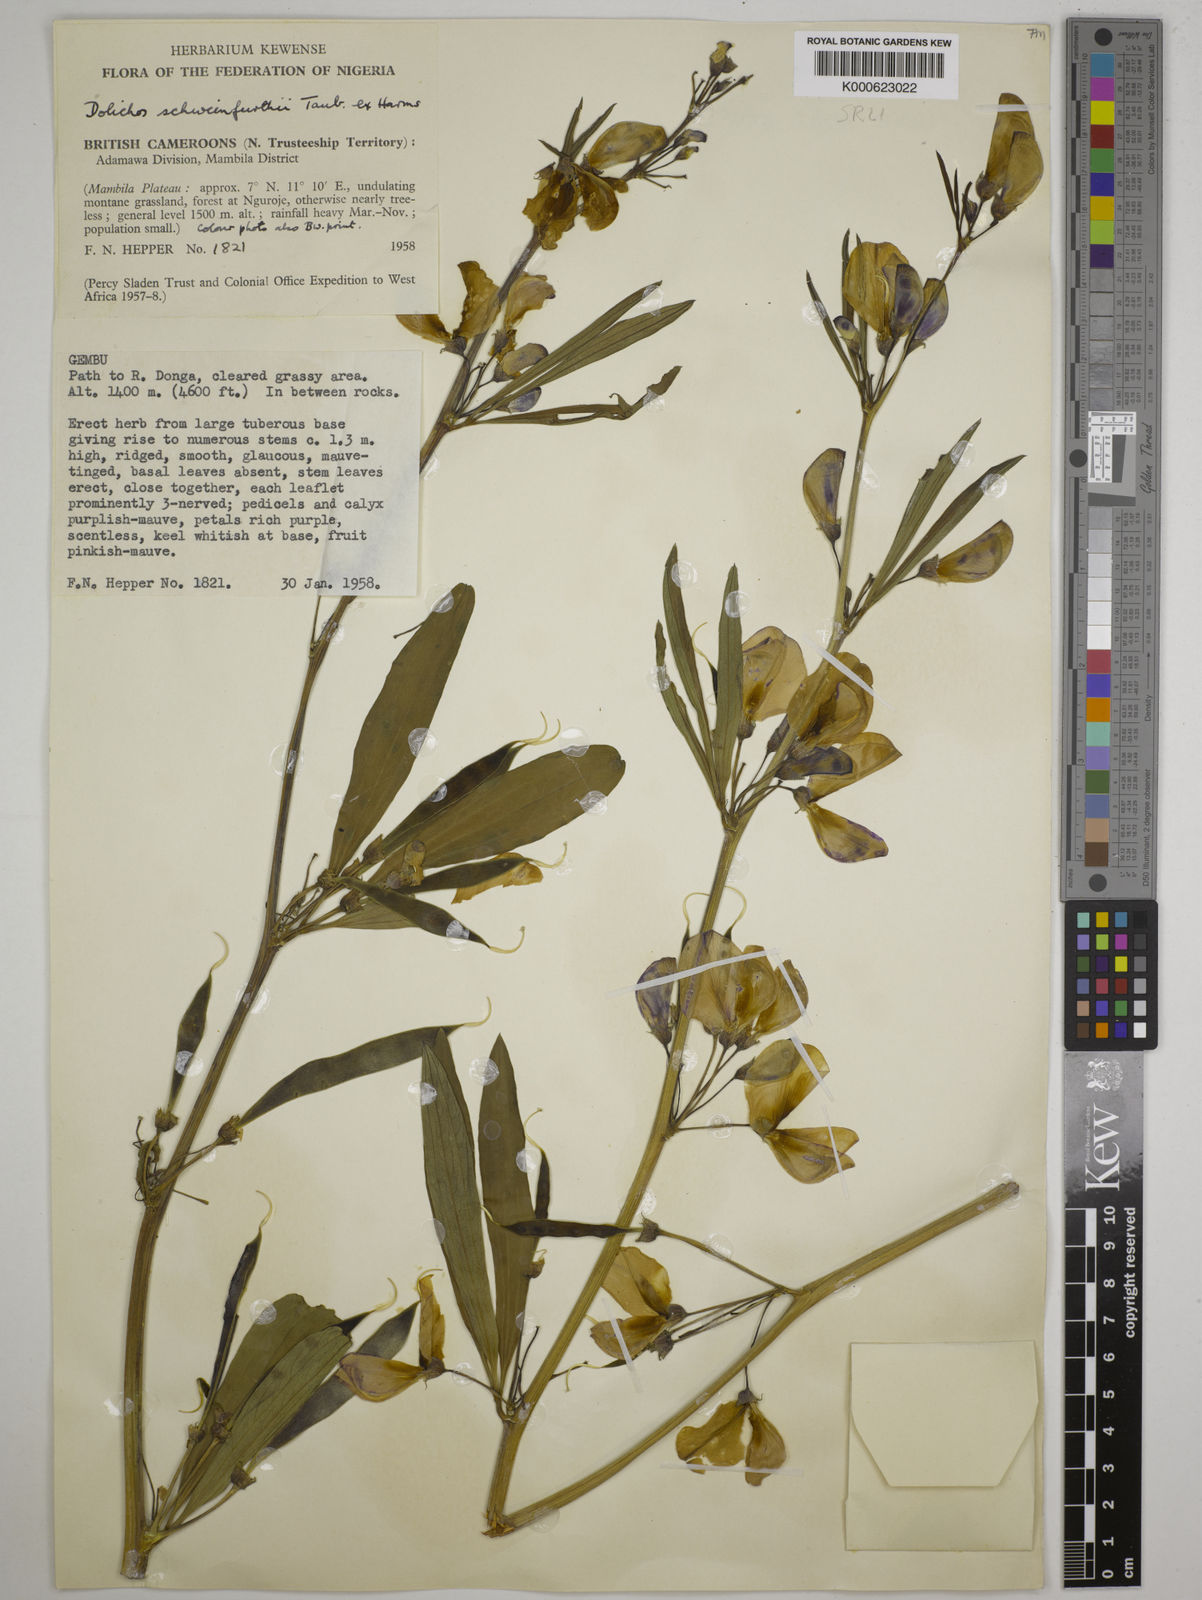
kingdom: Plantae
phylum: Tracheophyta
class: Magnoliopsida
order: Fabales
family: Fabaceae
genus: Dolichos
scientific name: Dolichos
